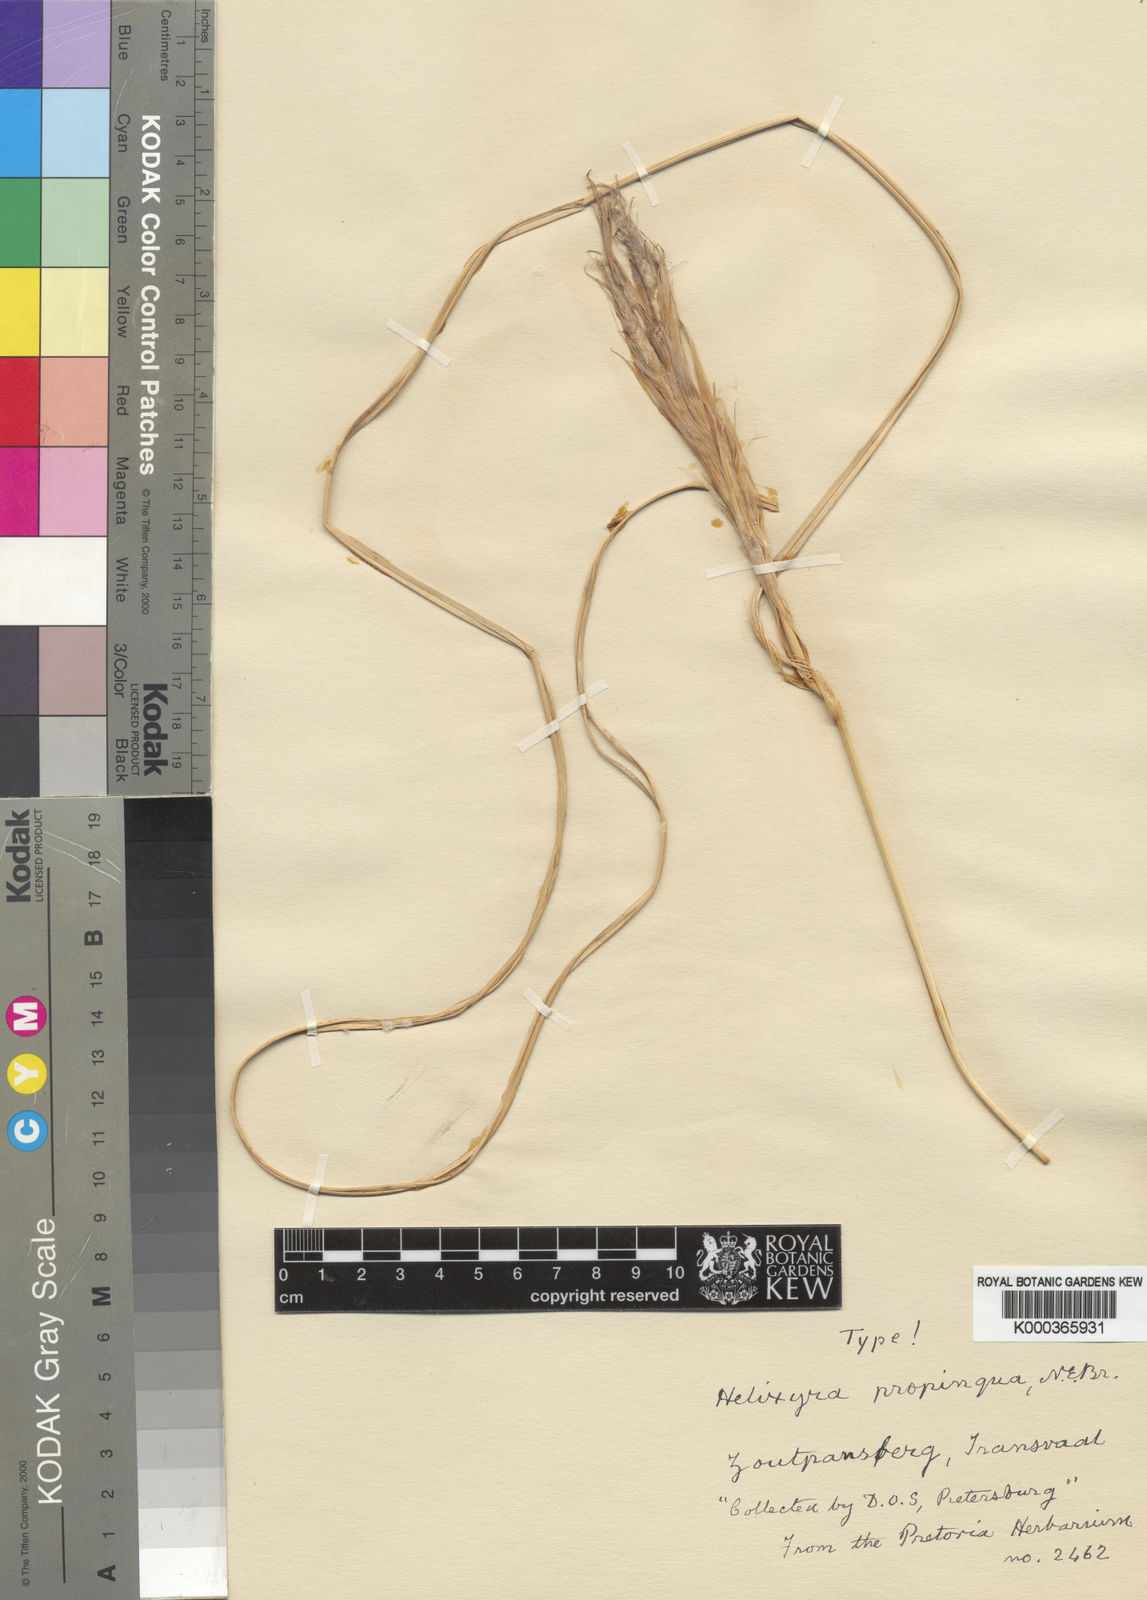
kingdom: Plantae
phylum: Tracheophyta
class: Liliopsida
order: Asparagales
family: Iridaceae
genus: Moraea
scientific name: Moraea simulans
